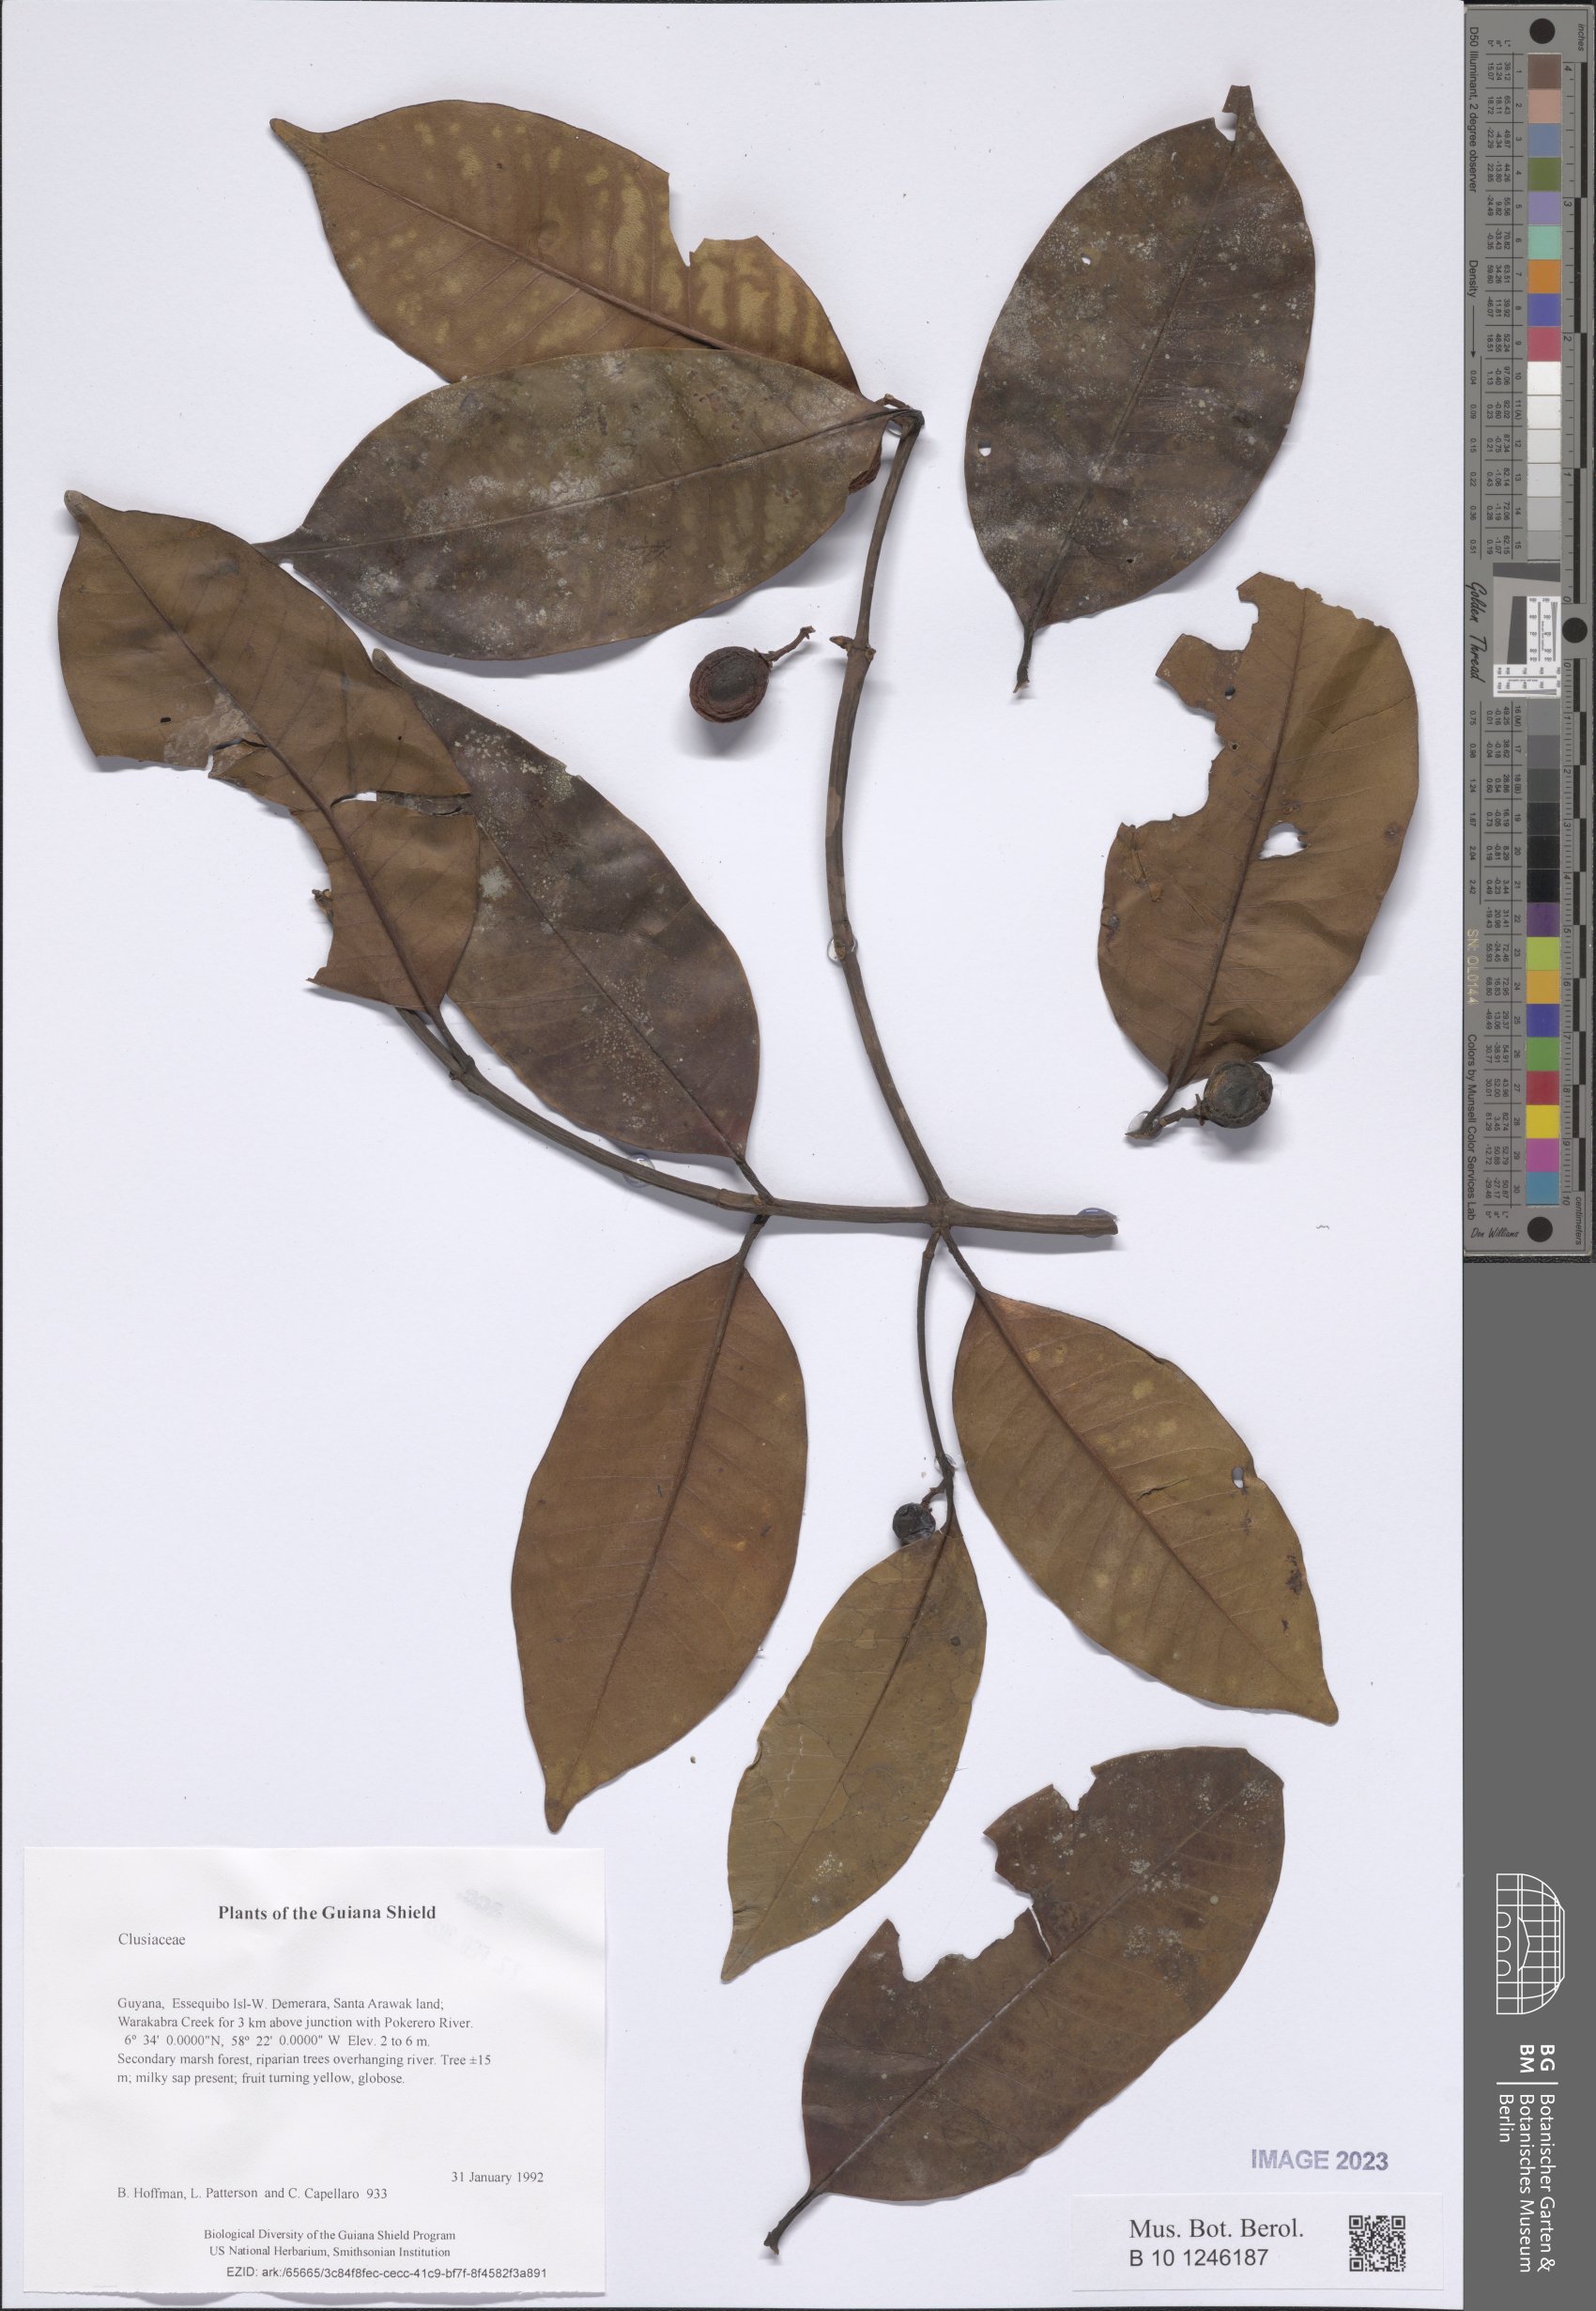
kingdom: Plantae
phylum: Tracheophyta
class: Magnoliopsida
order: Malpighiales
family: Clusiaceae
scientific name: Clusiaceae
